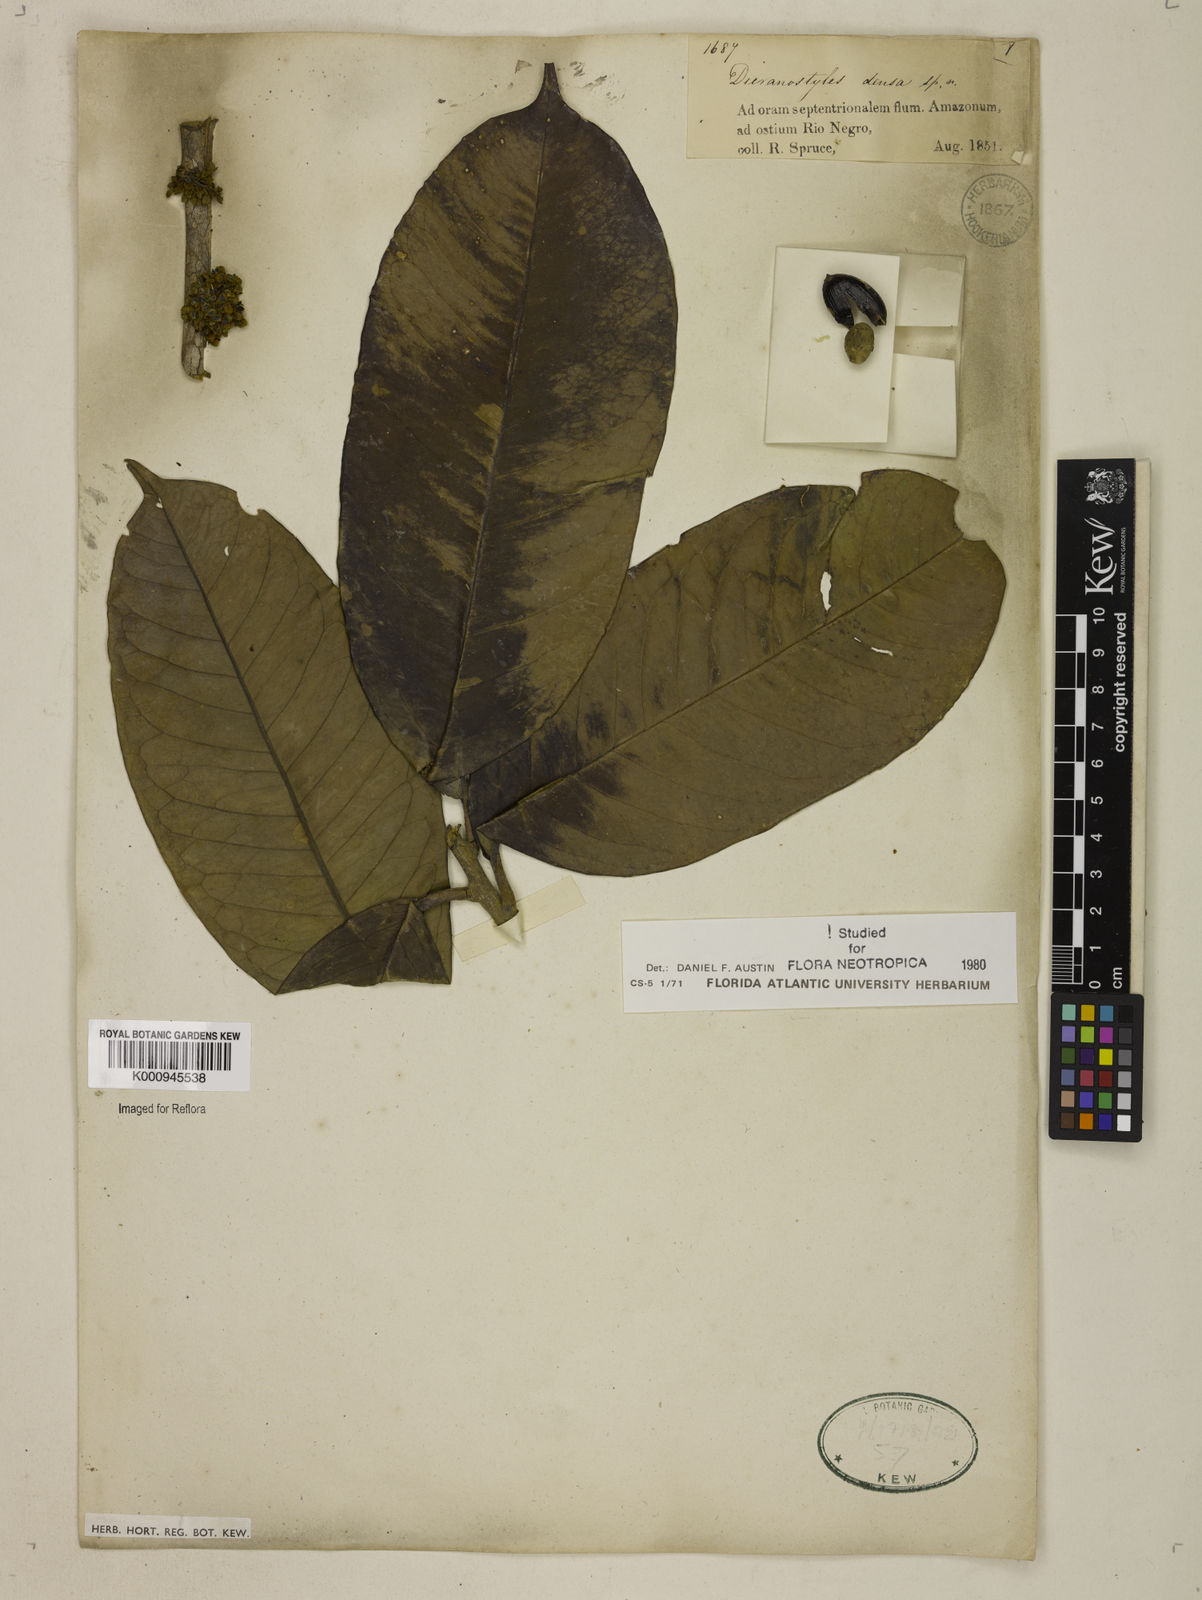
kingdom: Plantae
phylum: Tracheophyta
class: Magnoliopsida
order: Solanales
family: Convolvulaceae
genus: Dicranostyles
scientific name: Dicranostyles densa
